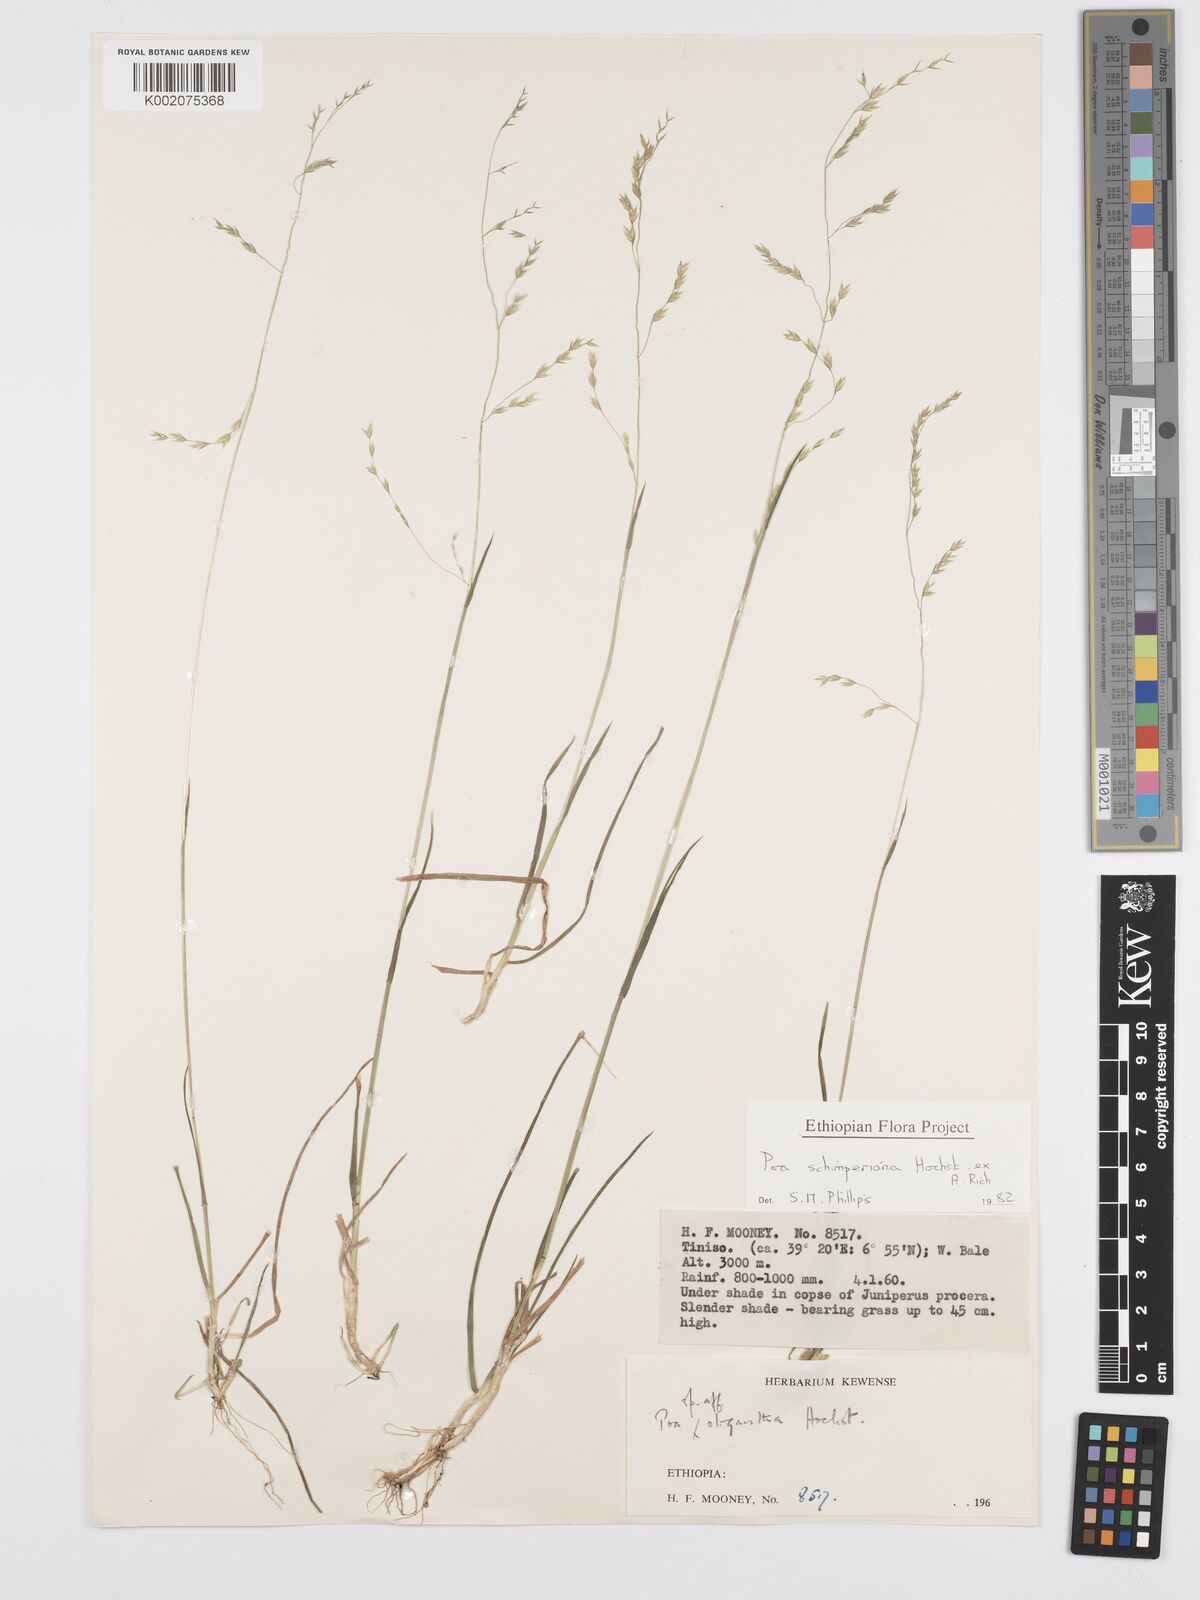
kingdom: Plantae
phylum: Tracheophyta
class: Liliopsida
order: Poales
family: Poaceae
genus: Poa
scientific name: Poa schimperiana
